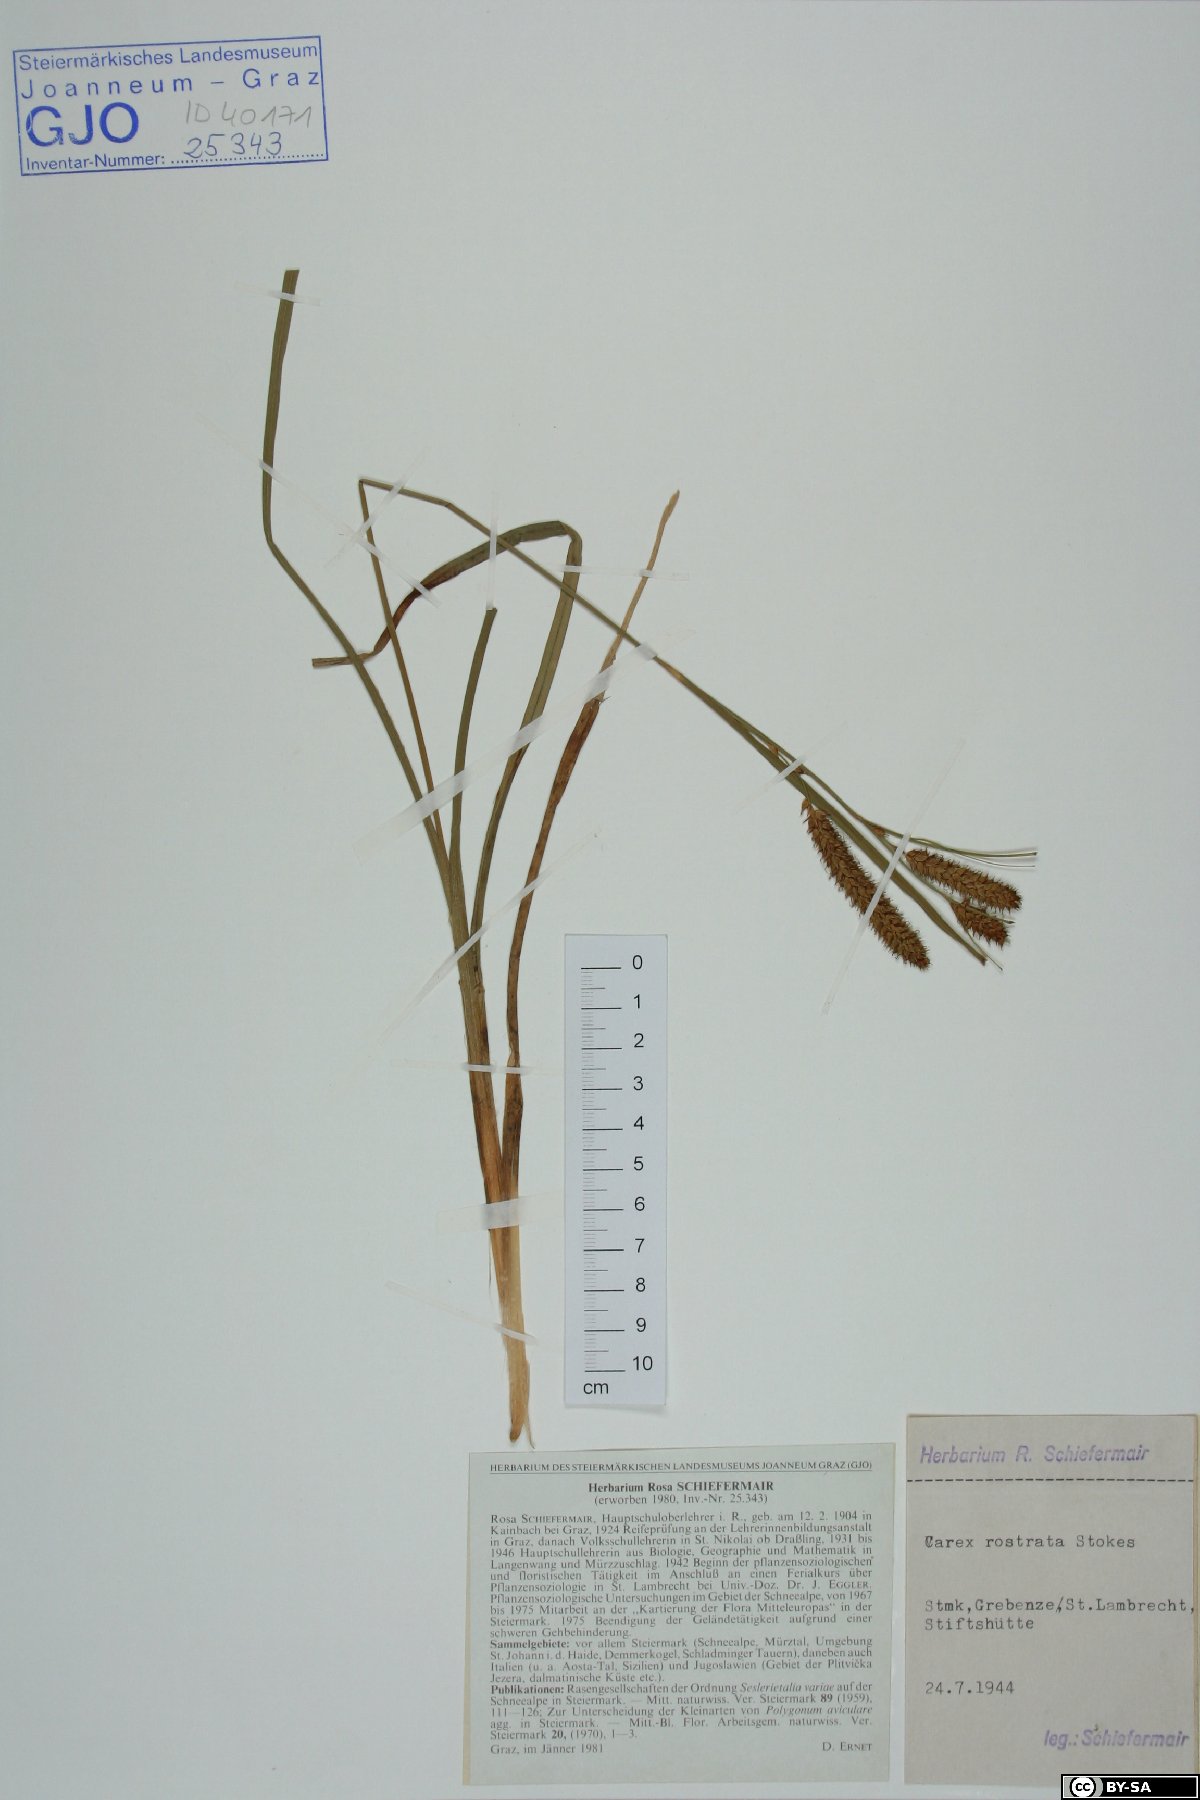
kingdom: Plantae
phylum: Tracheophyta
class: Liliopsida
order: Poales
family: Cyperaceae
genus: Carex
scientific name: Carex rostrata
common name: Bottle sedge
